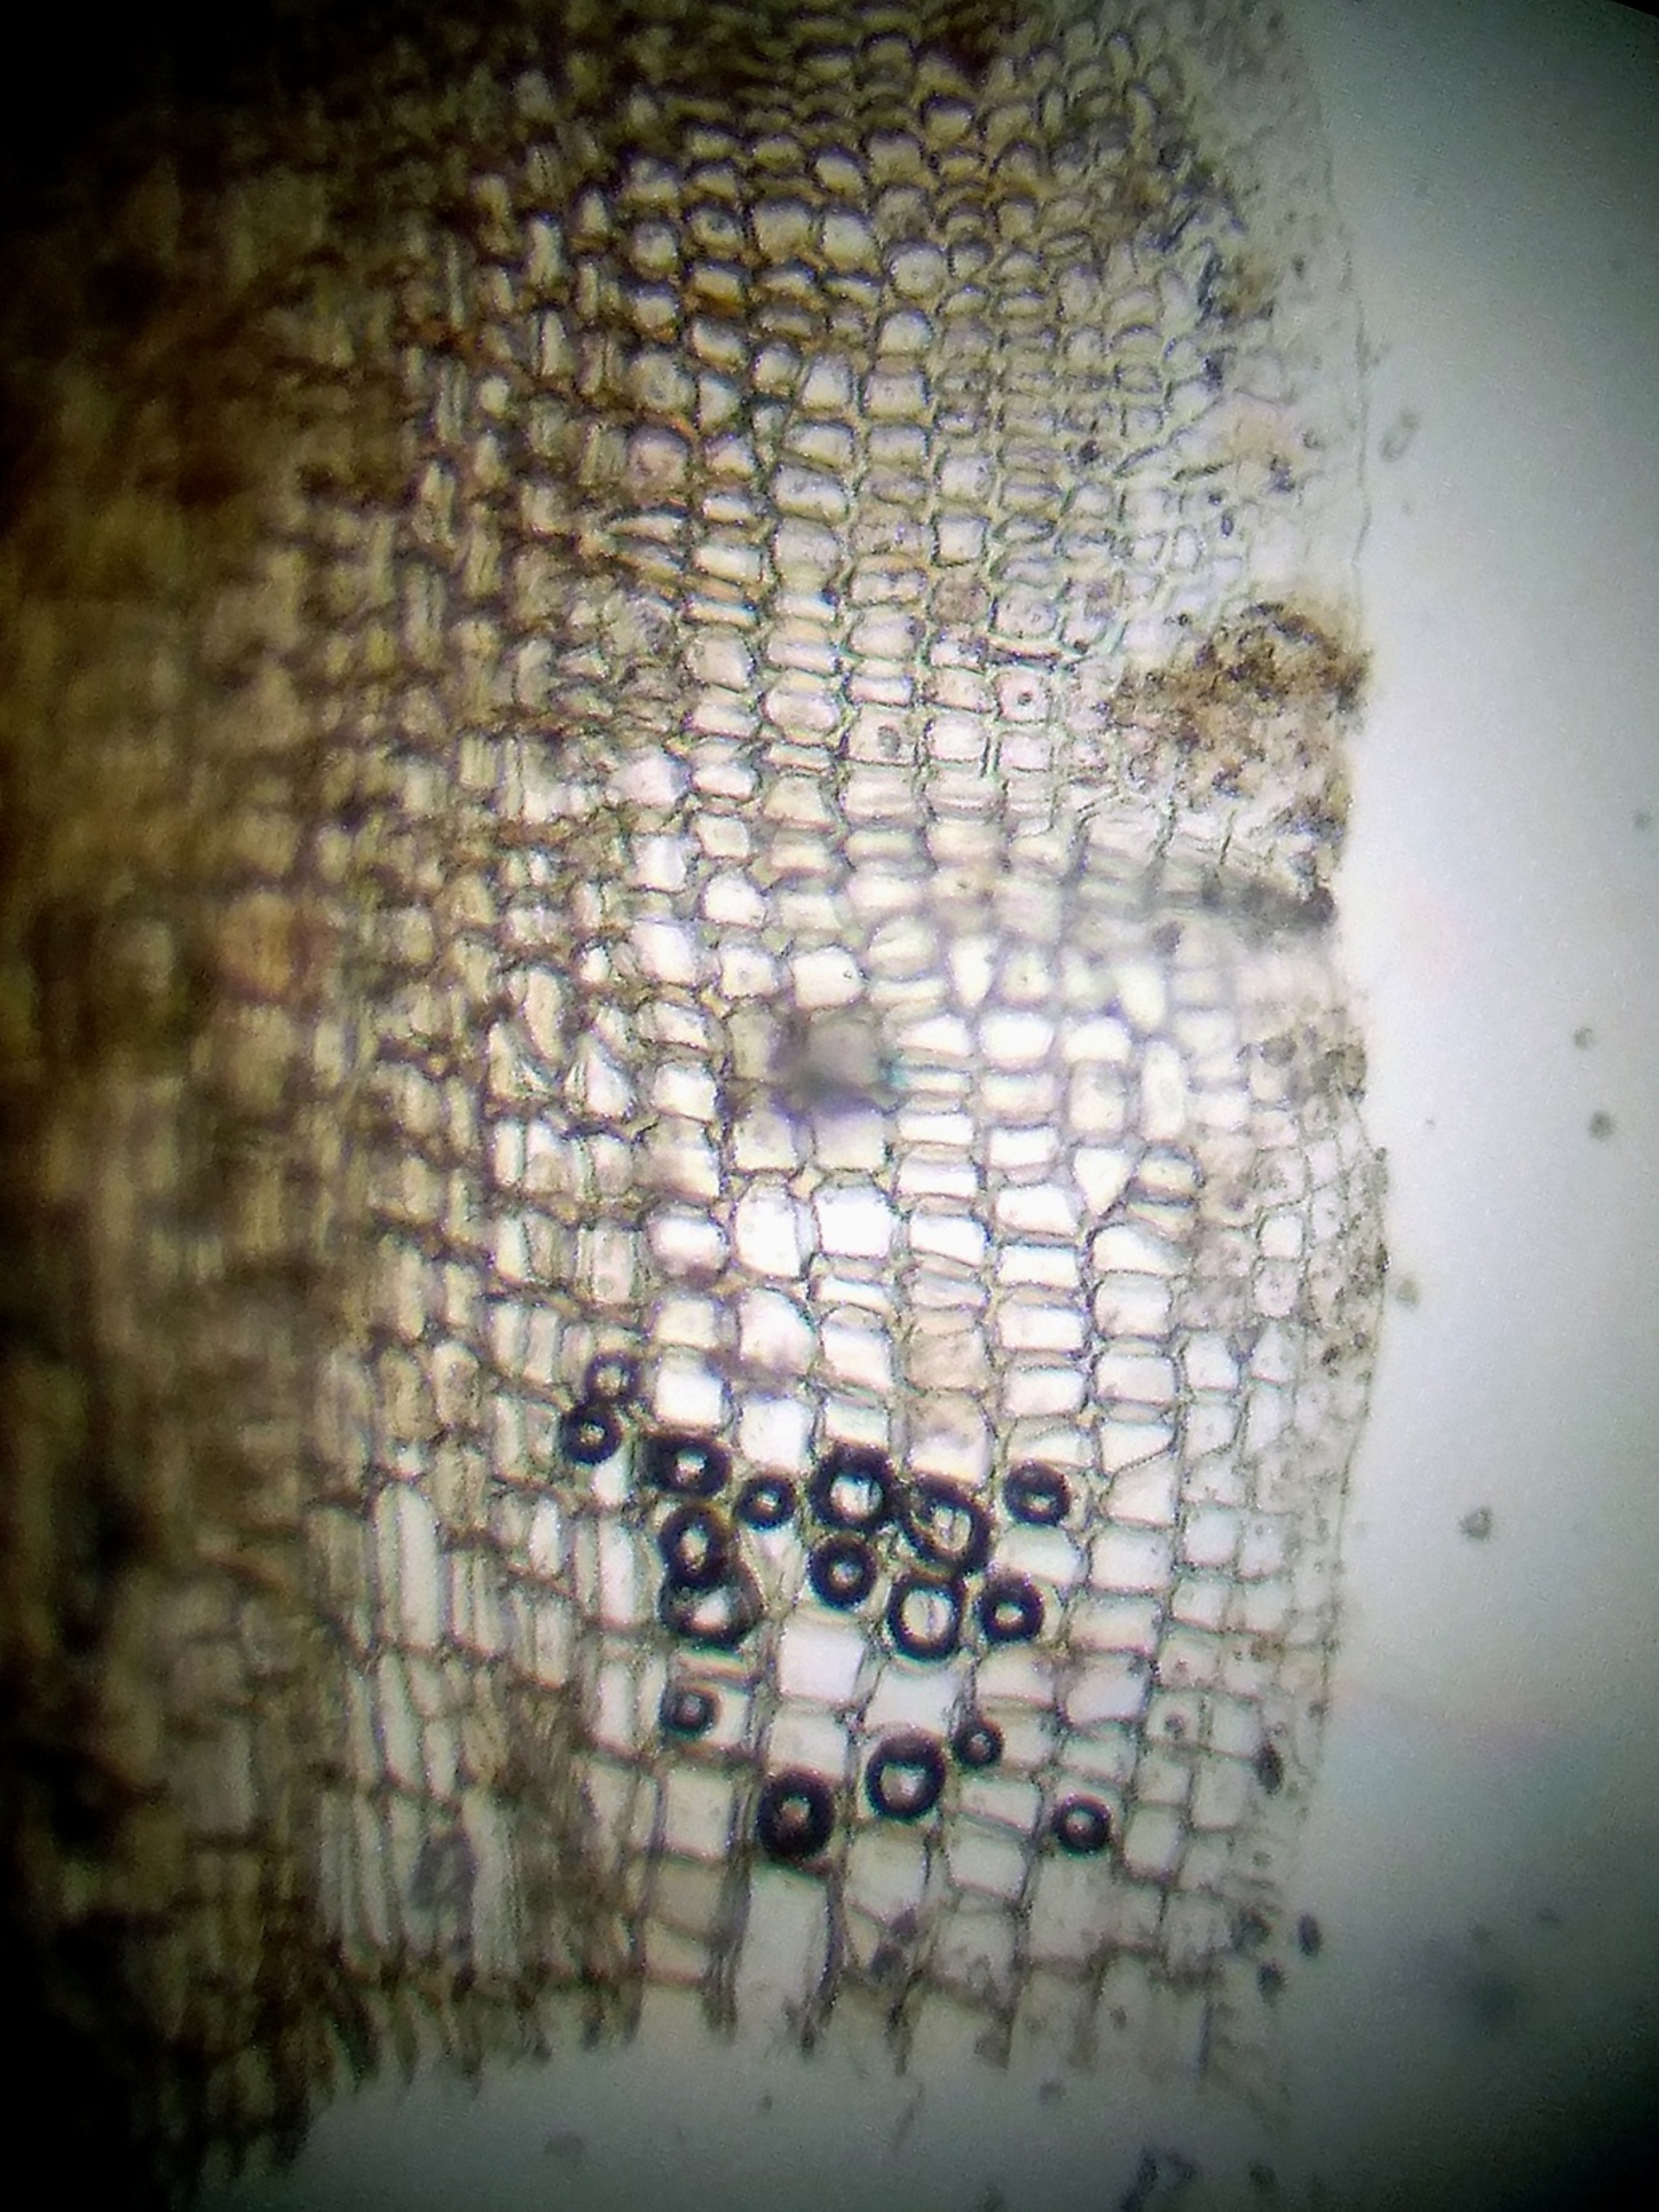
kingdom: Plantae
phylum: Bryophyta
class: Bryopsida
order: Pottiales
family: Pottiaceae
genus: Aloina
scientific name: Aloina ambigua
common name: Krog-tøffelmos
